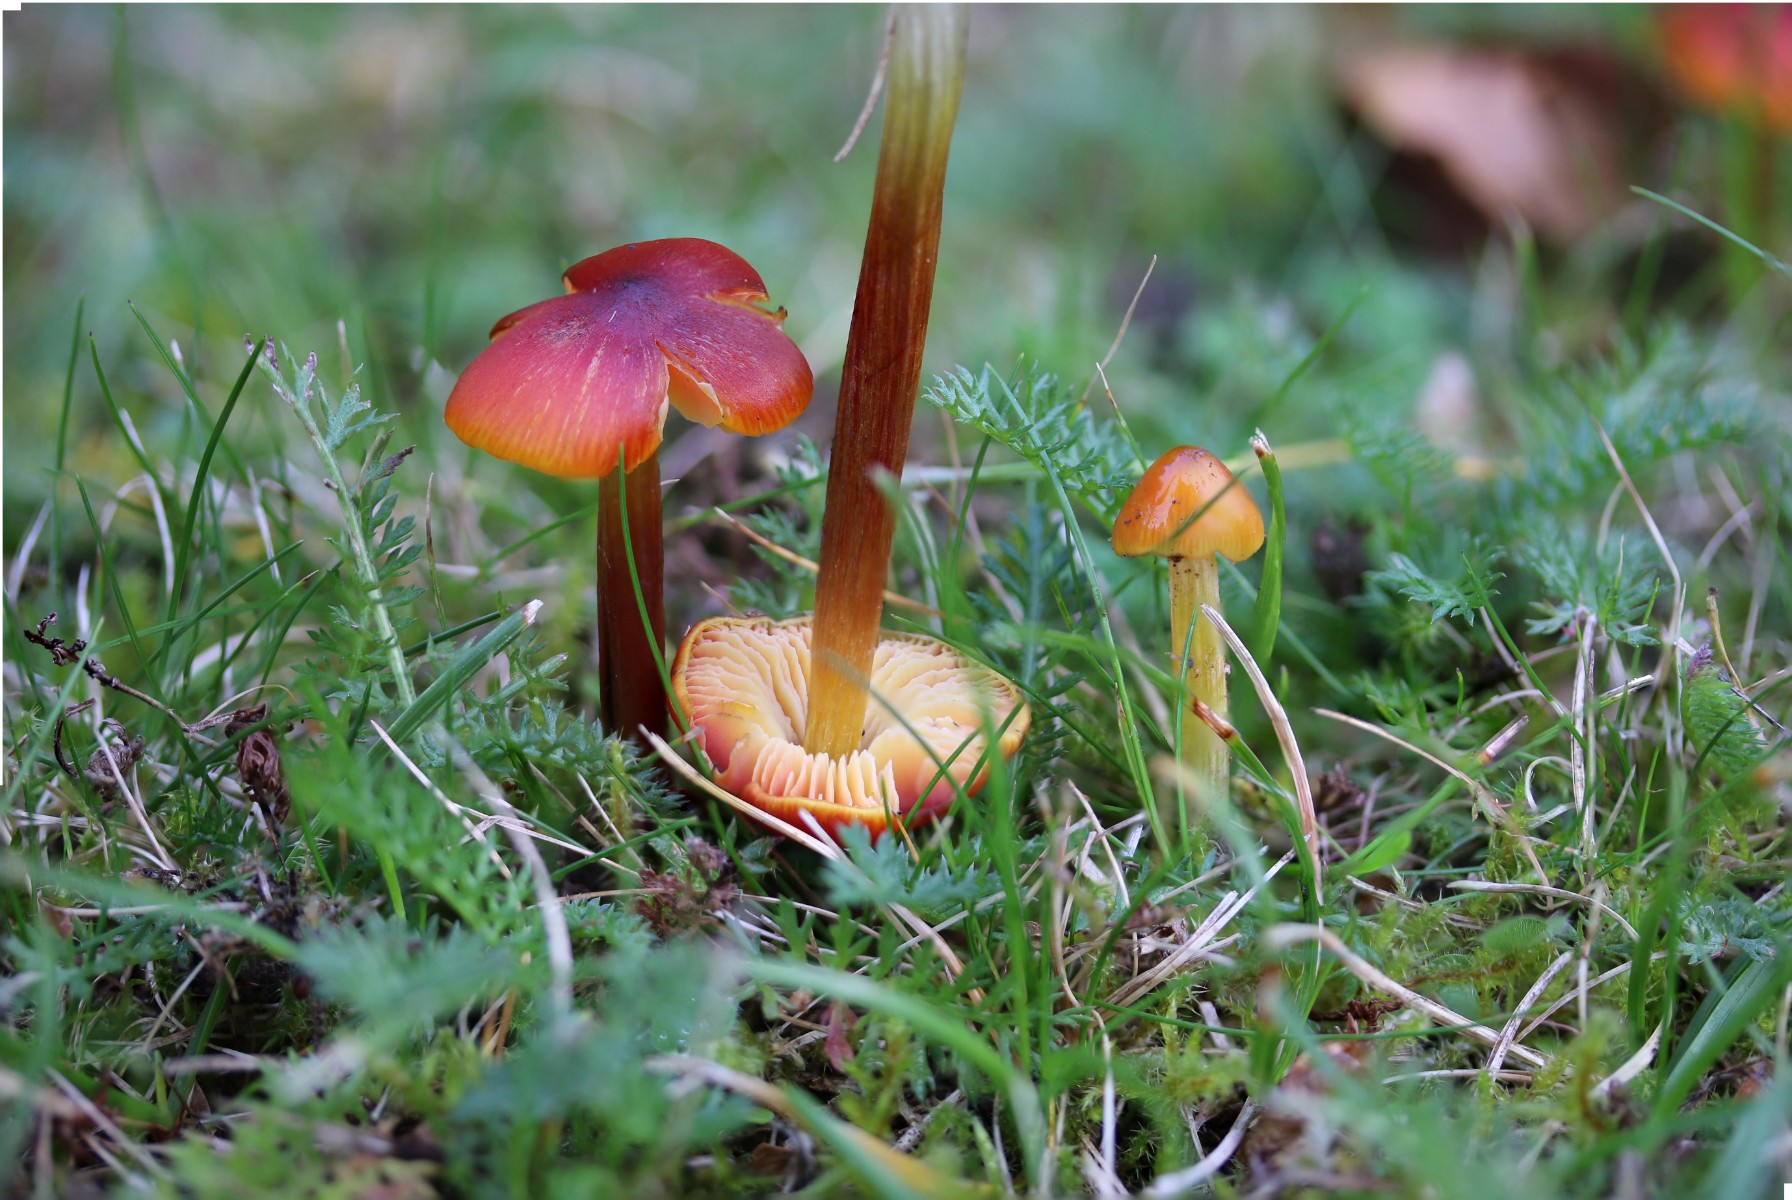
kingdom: Fungi
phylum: Basidiomycota
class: Agaricomycetes
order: Agaricales
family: Hygrophoraceae
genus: Hygrocybe
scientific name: Hygrocybe conica
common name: kegle-vokshat
